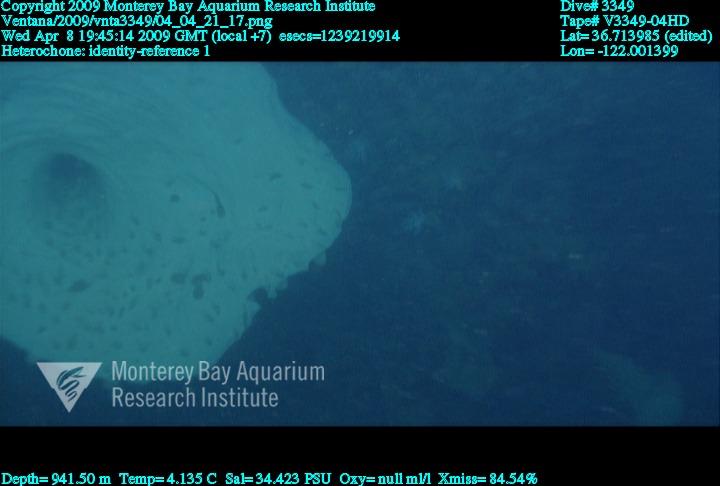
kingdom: Animalia
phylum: Porifera
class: Hexactinellida
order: Sceptrulophora
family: Aphrocallistidae
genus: Heterochone
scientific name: Heterochone
